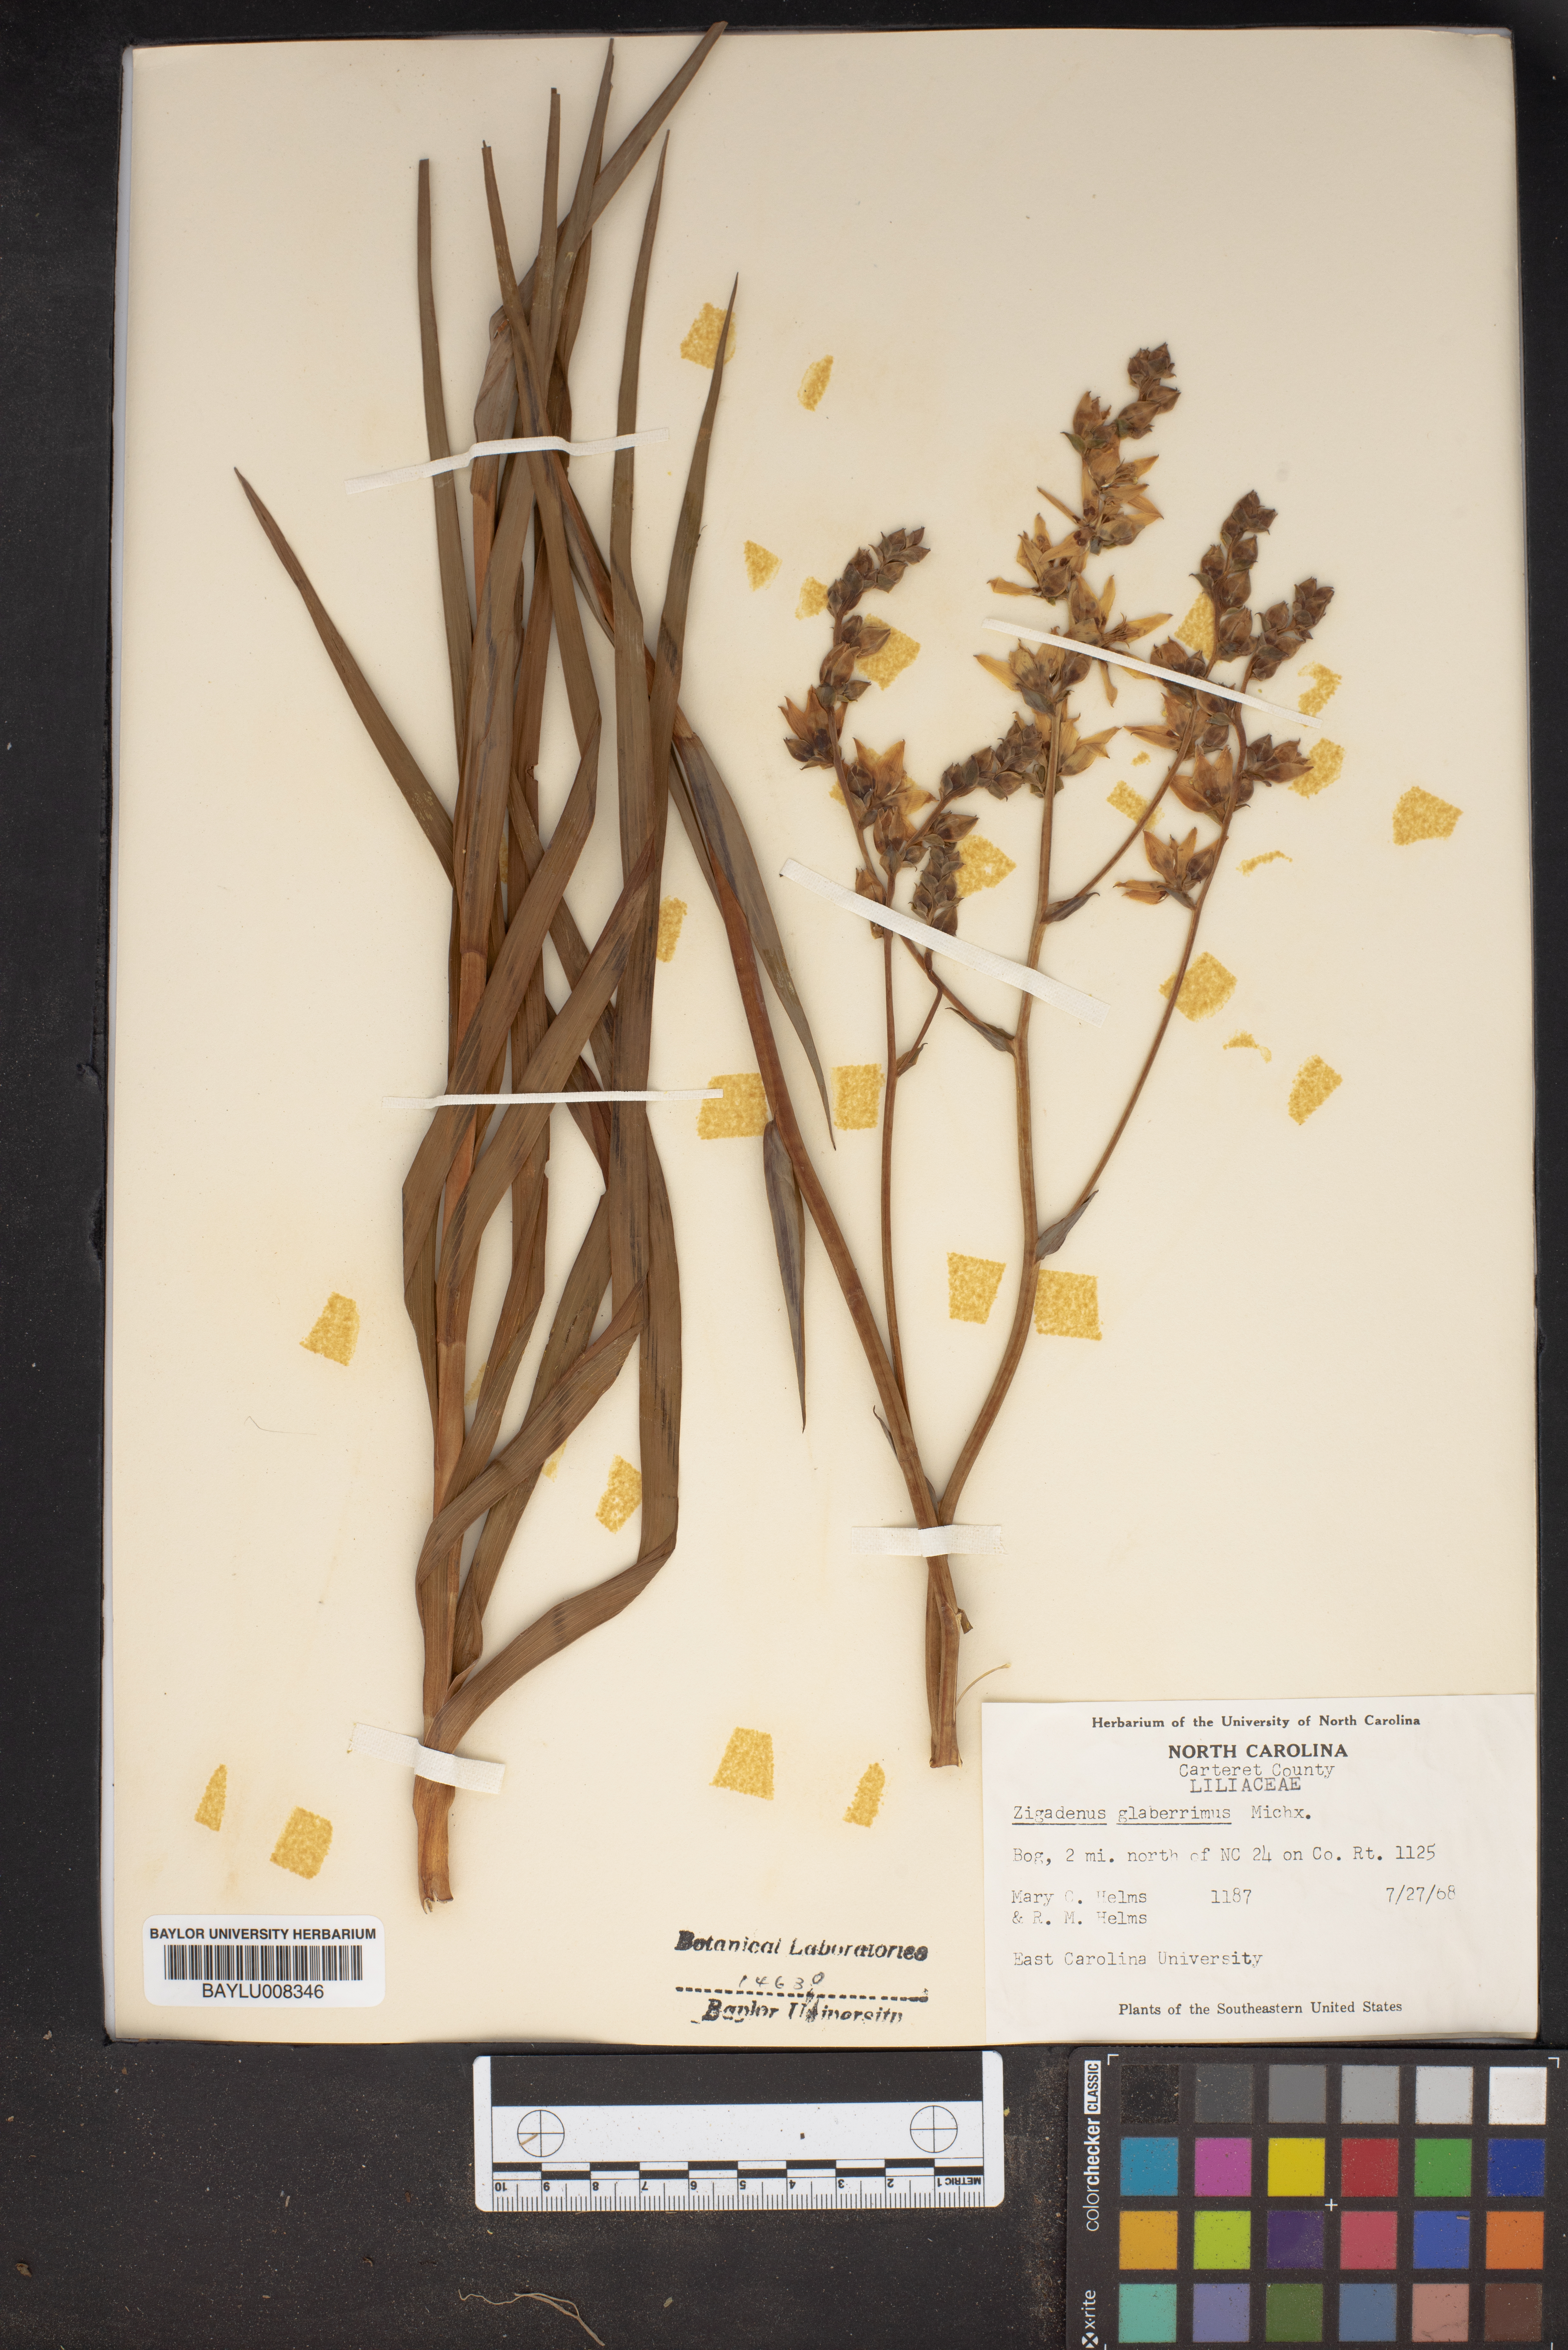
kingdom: Plantae
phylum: Tracheophyta
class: Liliopsida
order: Liliales
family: Melanthiaceae
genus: Zigadenus
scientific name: Zigadenus glaberrimus
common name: Sandbog death camas
